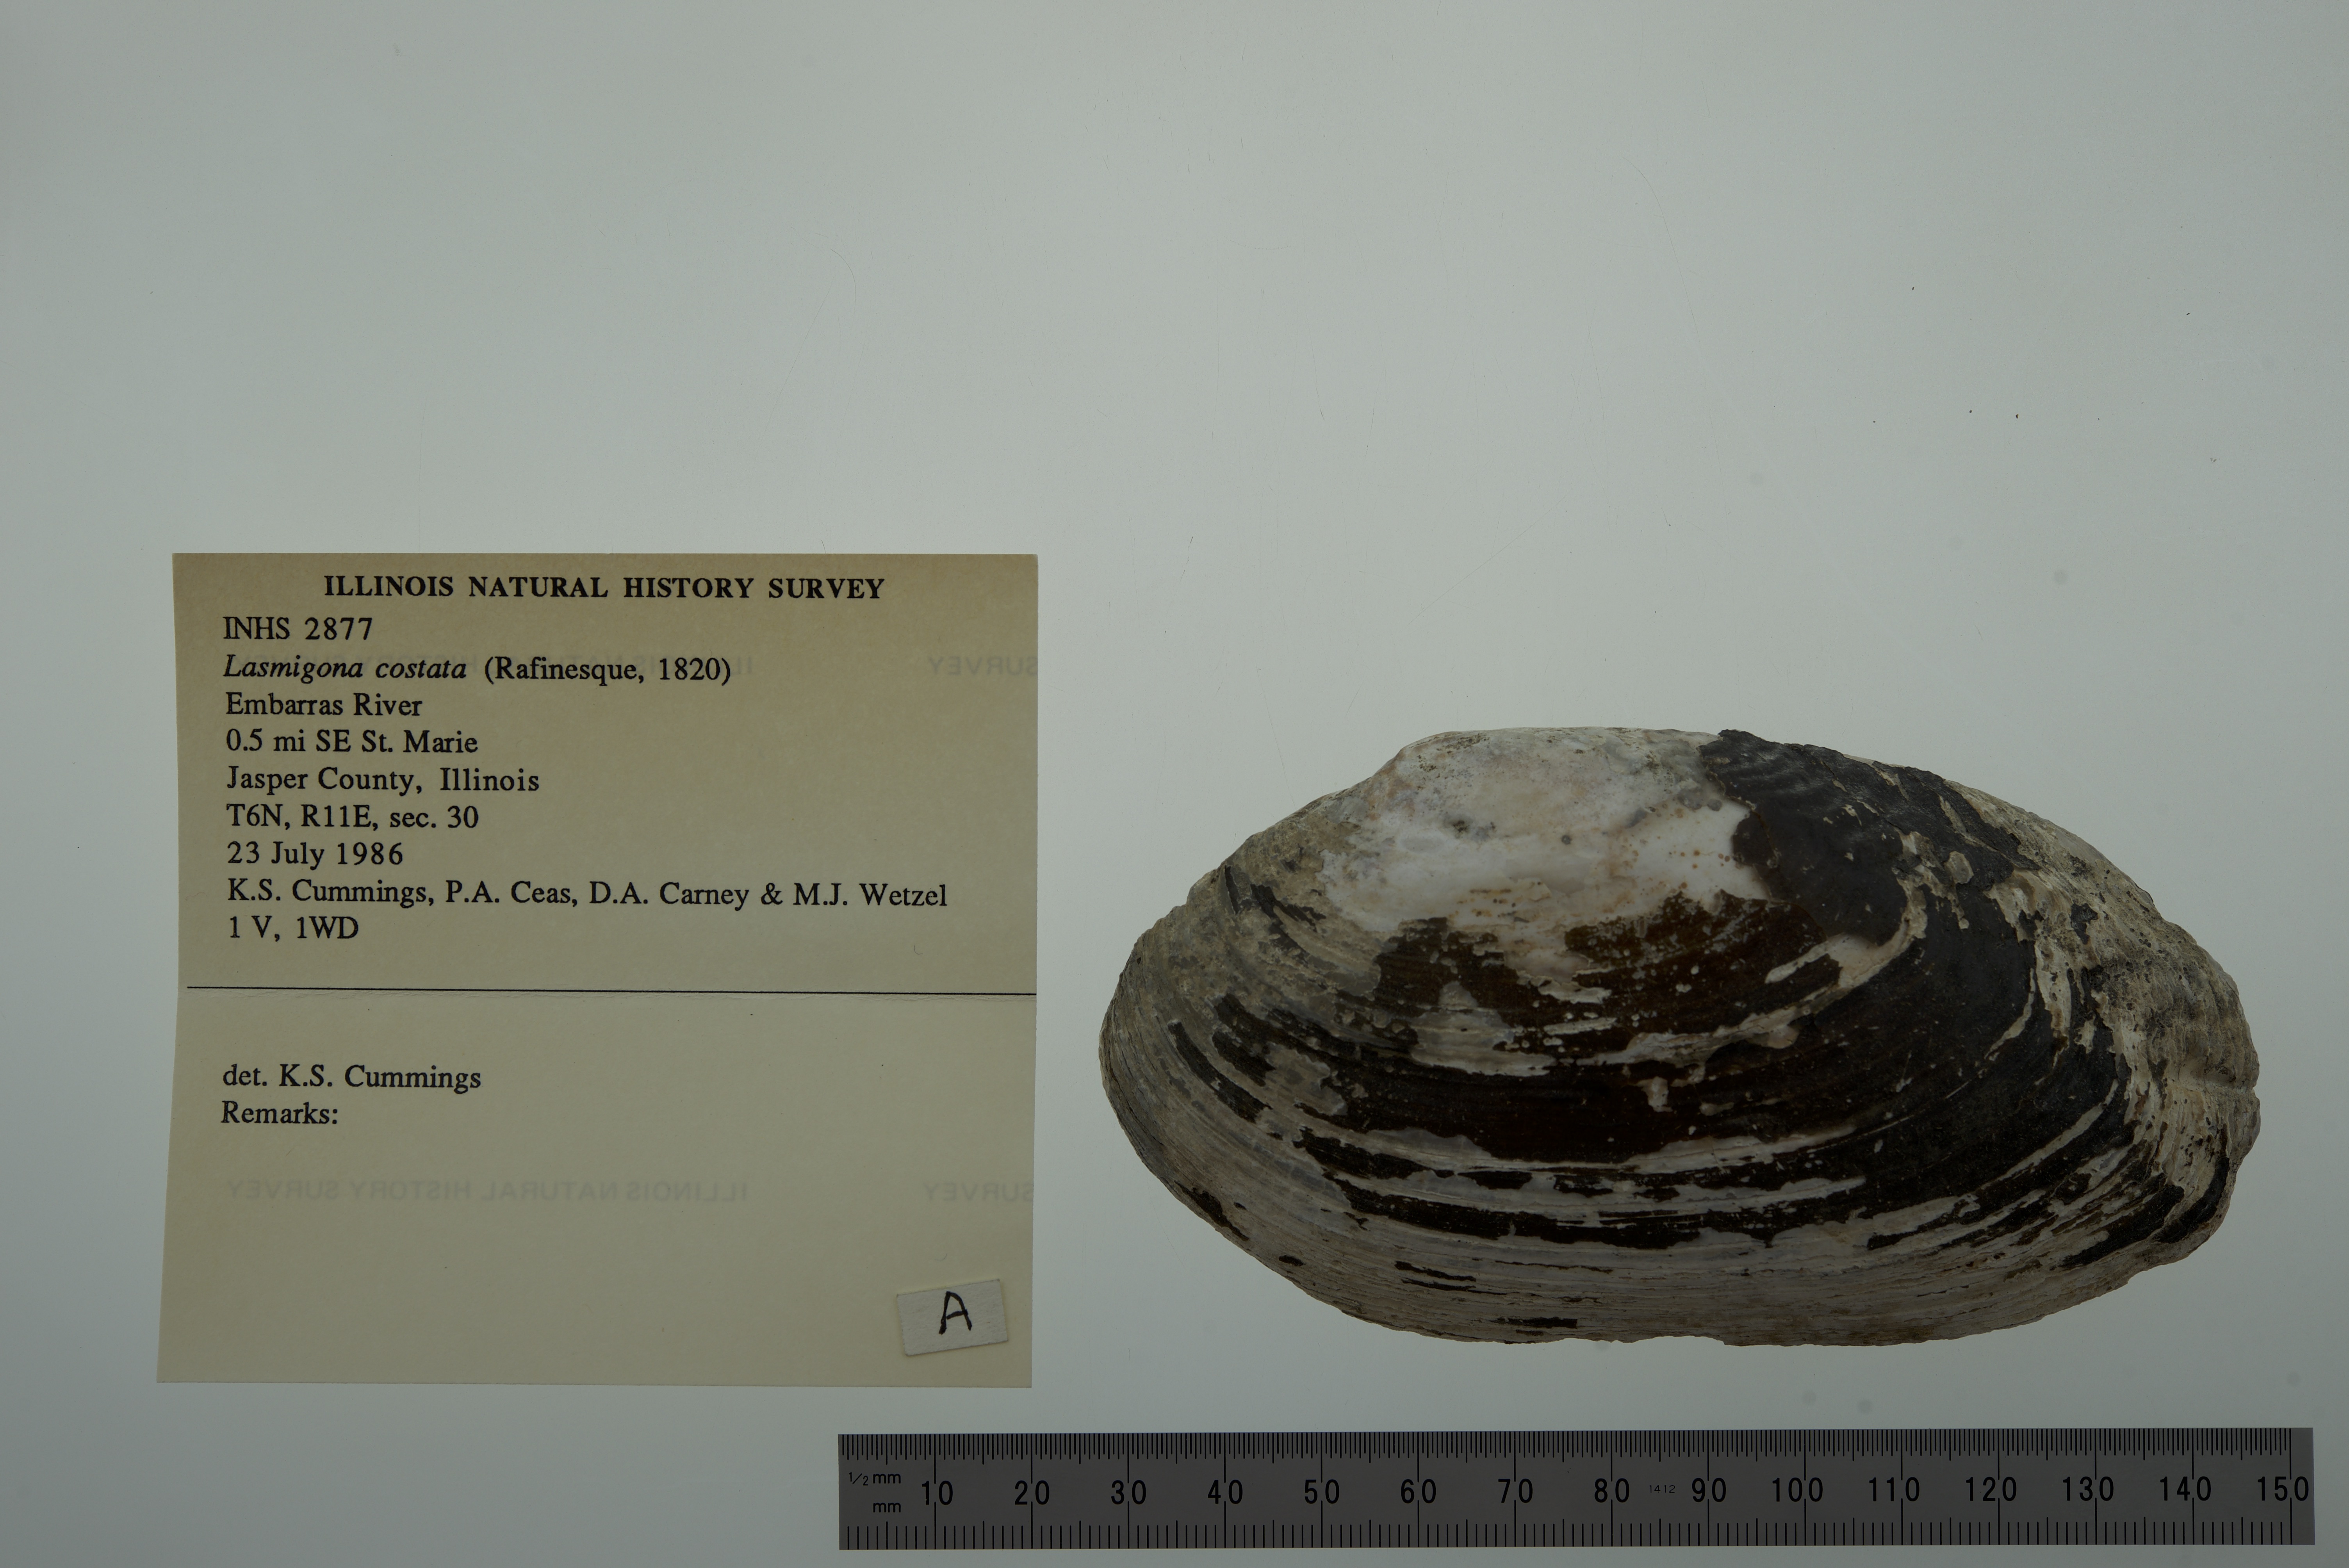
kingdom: Animalia
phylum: Mollusca
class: Bivalvia
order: Unionida
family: Unionidae
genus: Lasmigona
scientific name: Lasmigona costata
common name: Flutedshell
